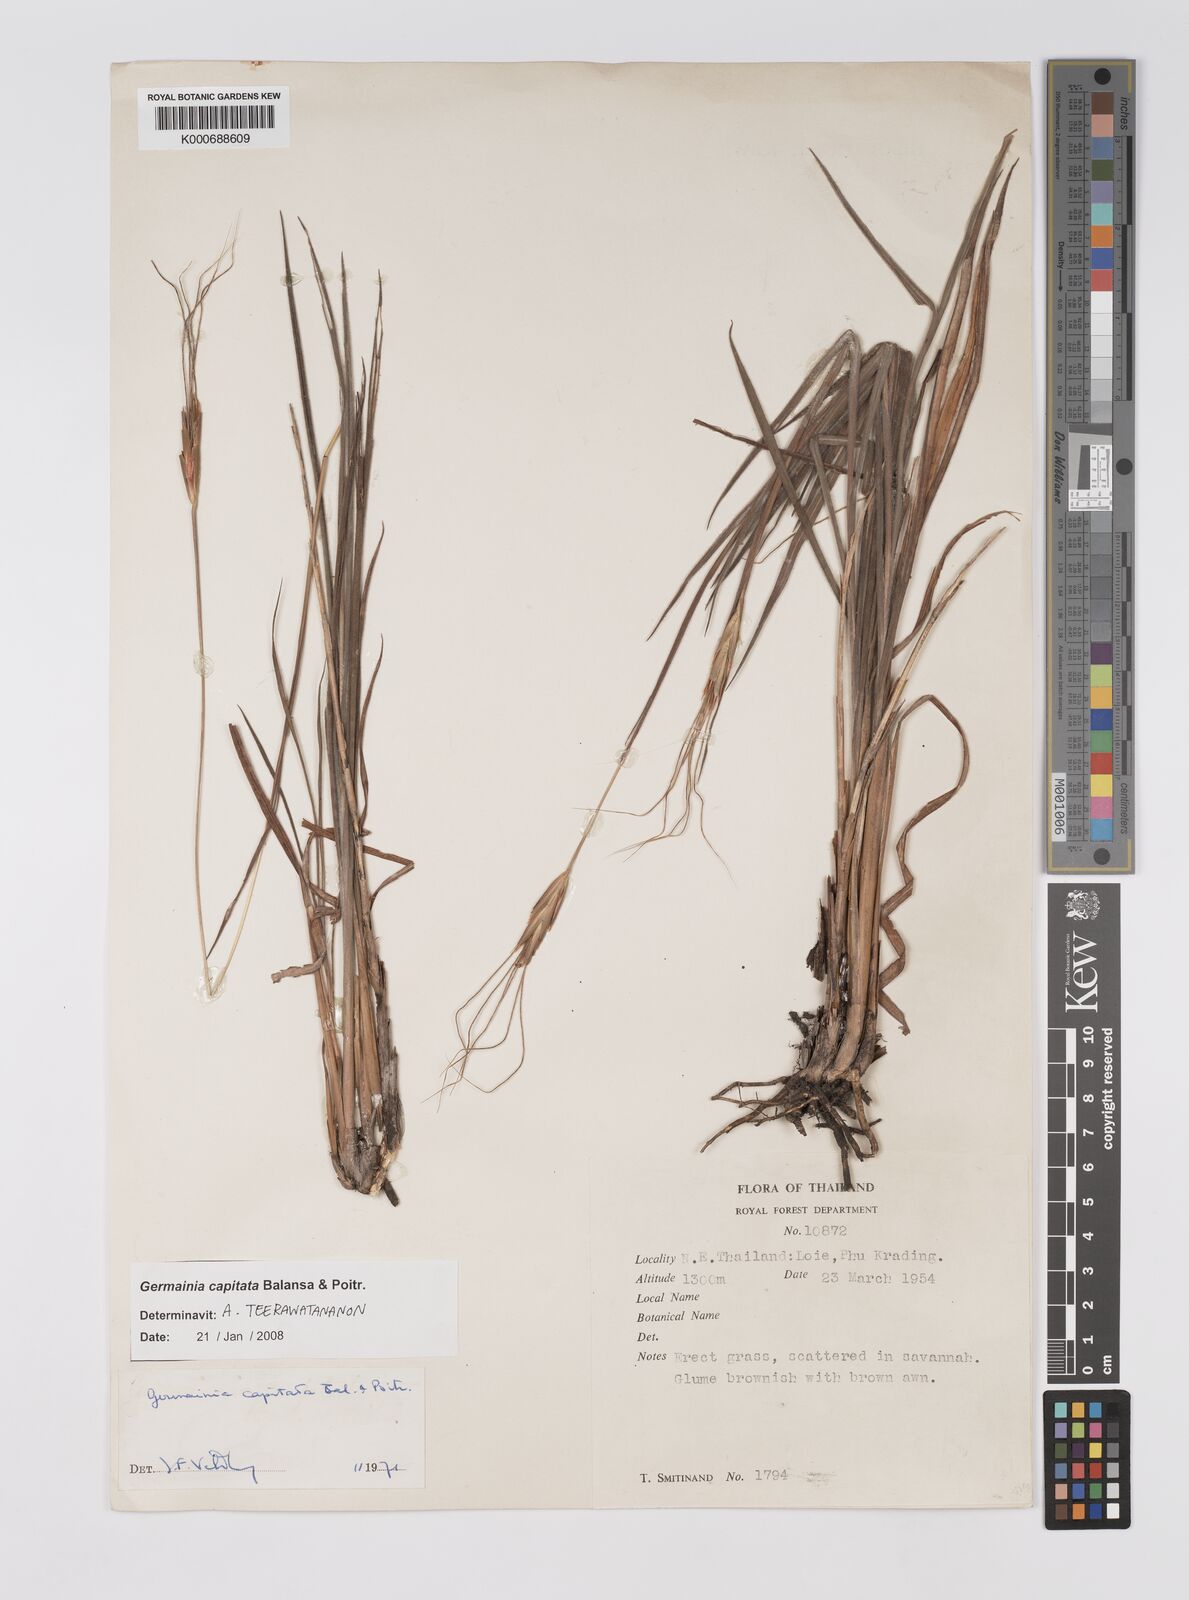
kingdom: Plantae
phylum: Tracheophyta
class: Liliopsida
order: Poales
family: Poaceae
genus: Germainia
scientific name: Germainia capitata
